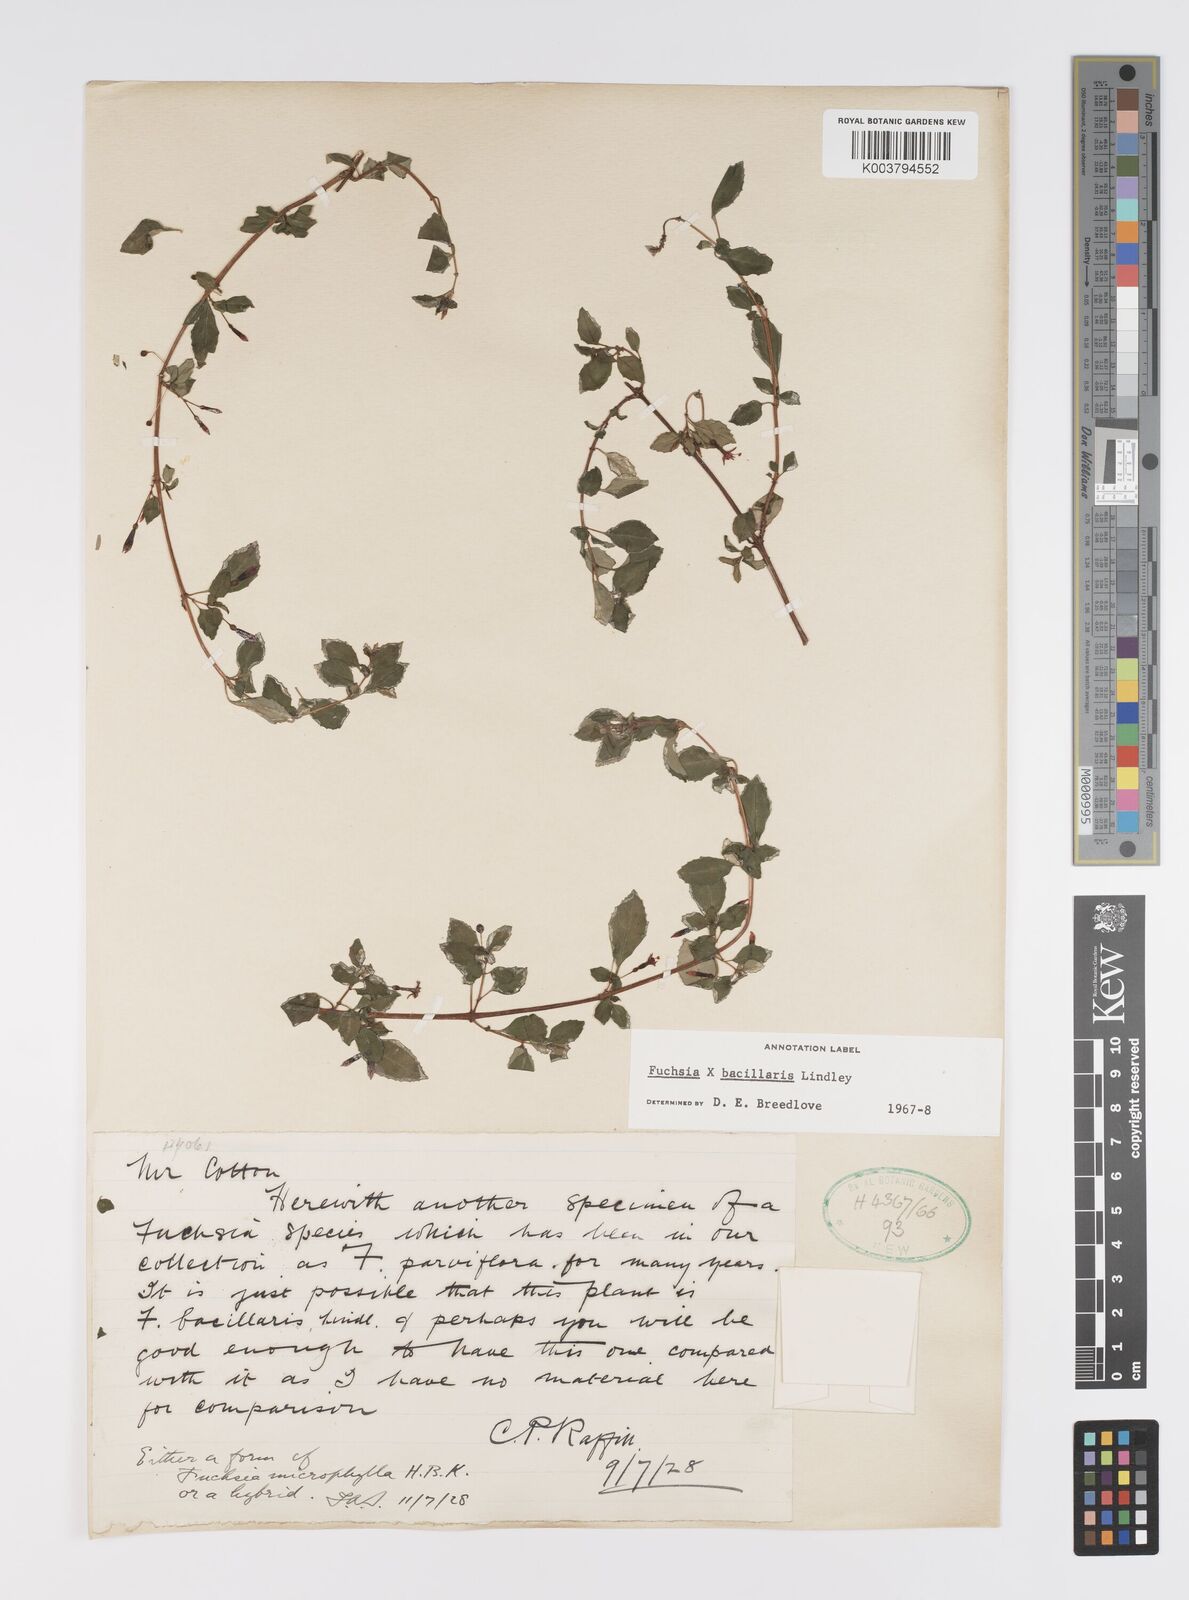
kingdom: Plantae
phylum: Tracheophyta
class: Magnoliopsida
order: Myrtales
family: Onagraceae
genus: Fuchsia
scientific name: Fuchsia bacillaris
